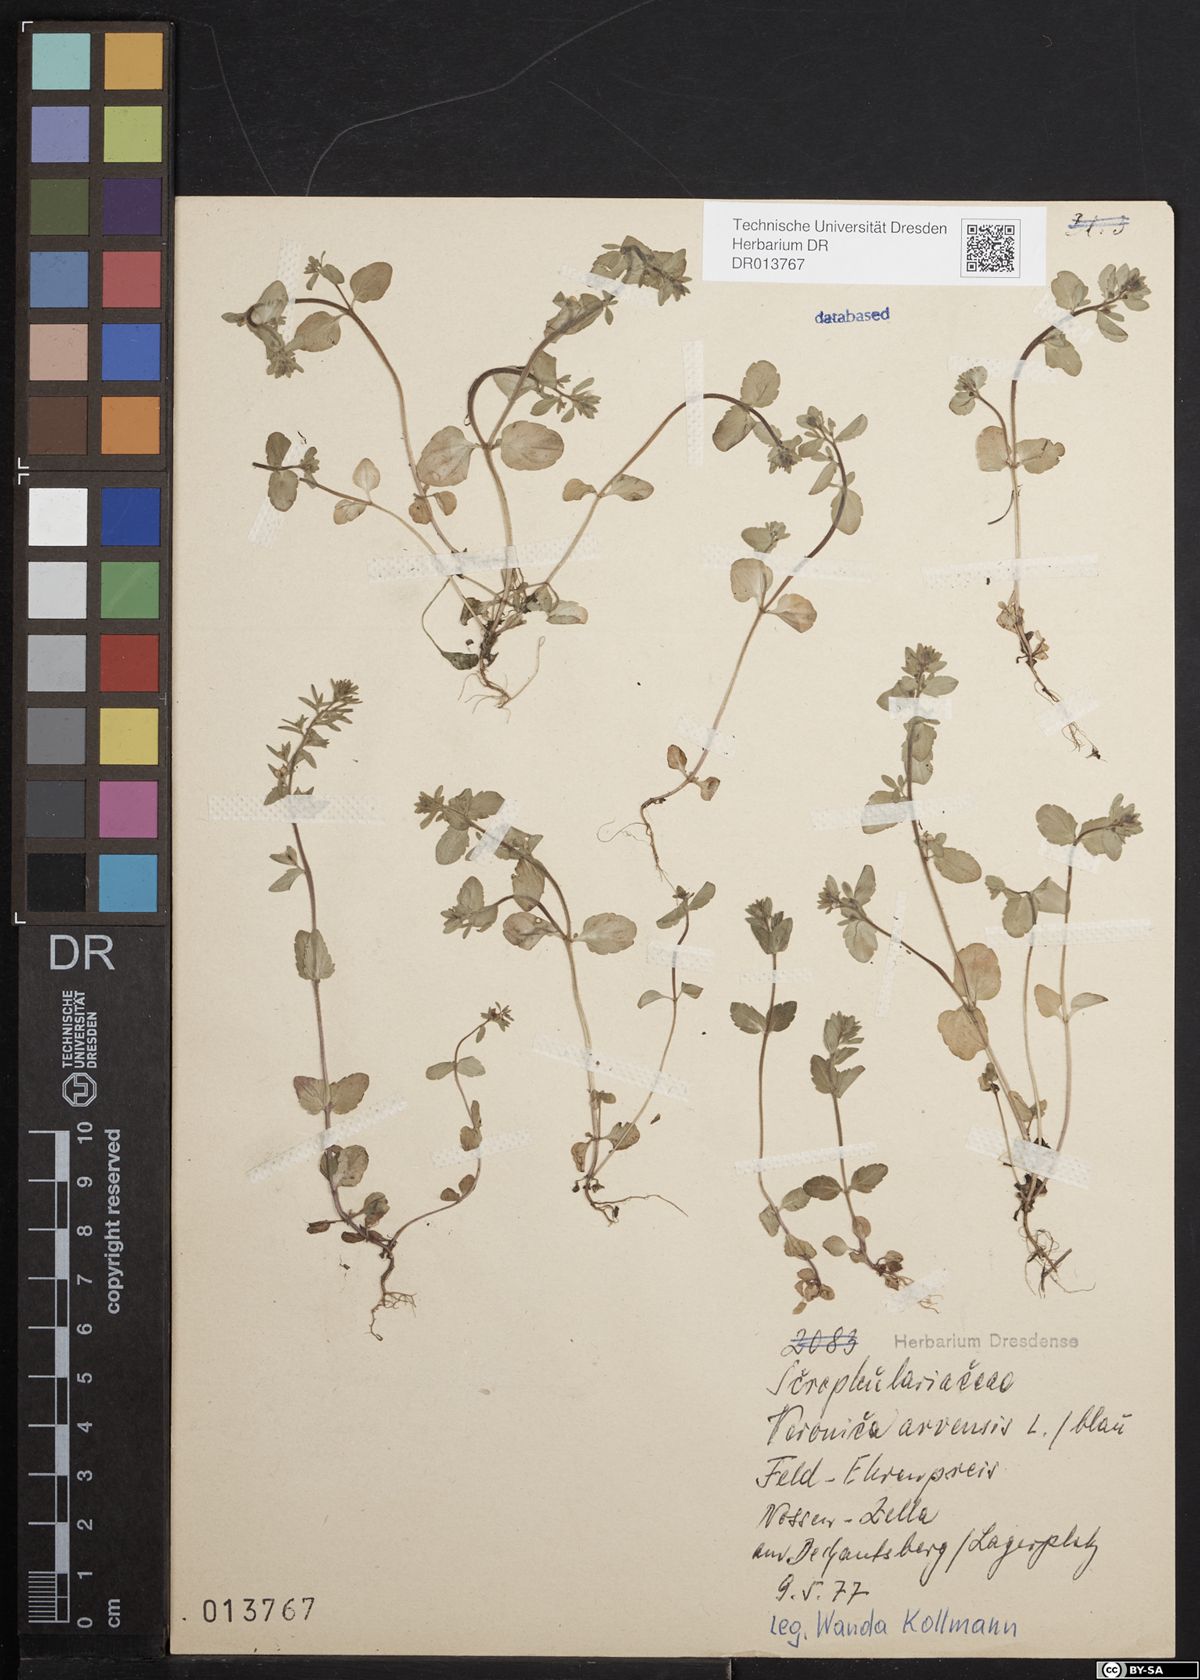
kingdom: Plantae
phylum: Tracheophyta
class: Magnoliopsida
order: Lamiales
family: Plantaginaceae
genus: Veronica
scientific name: Veronica arvensis
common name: Corn speedwell
